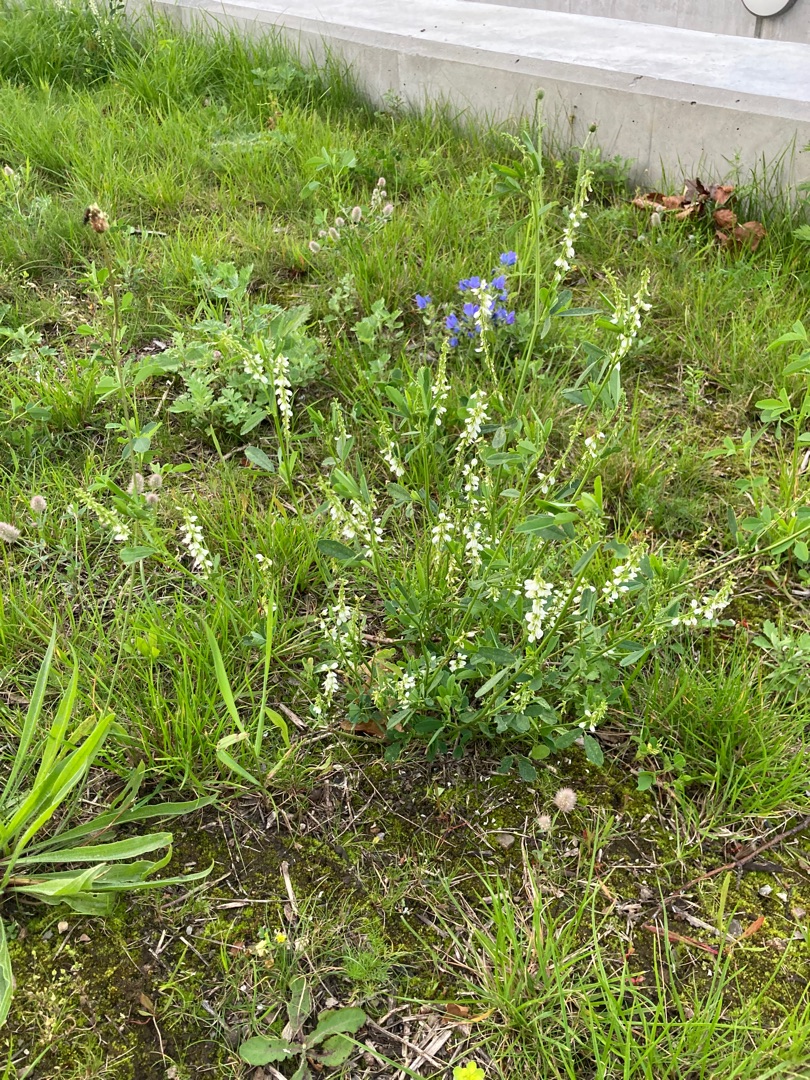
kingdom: Plantae
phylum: Tracheophyta
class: Magnoliopsida
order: Fabales
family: Fabaceae
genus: Melilotus
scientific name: Melilotus albus
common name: Hvid stenkløver
